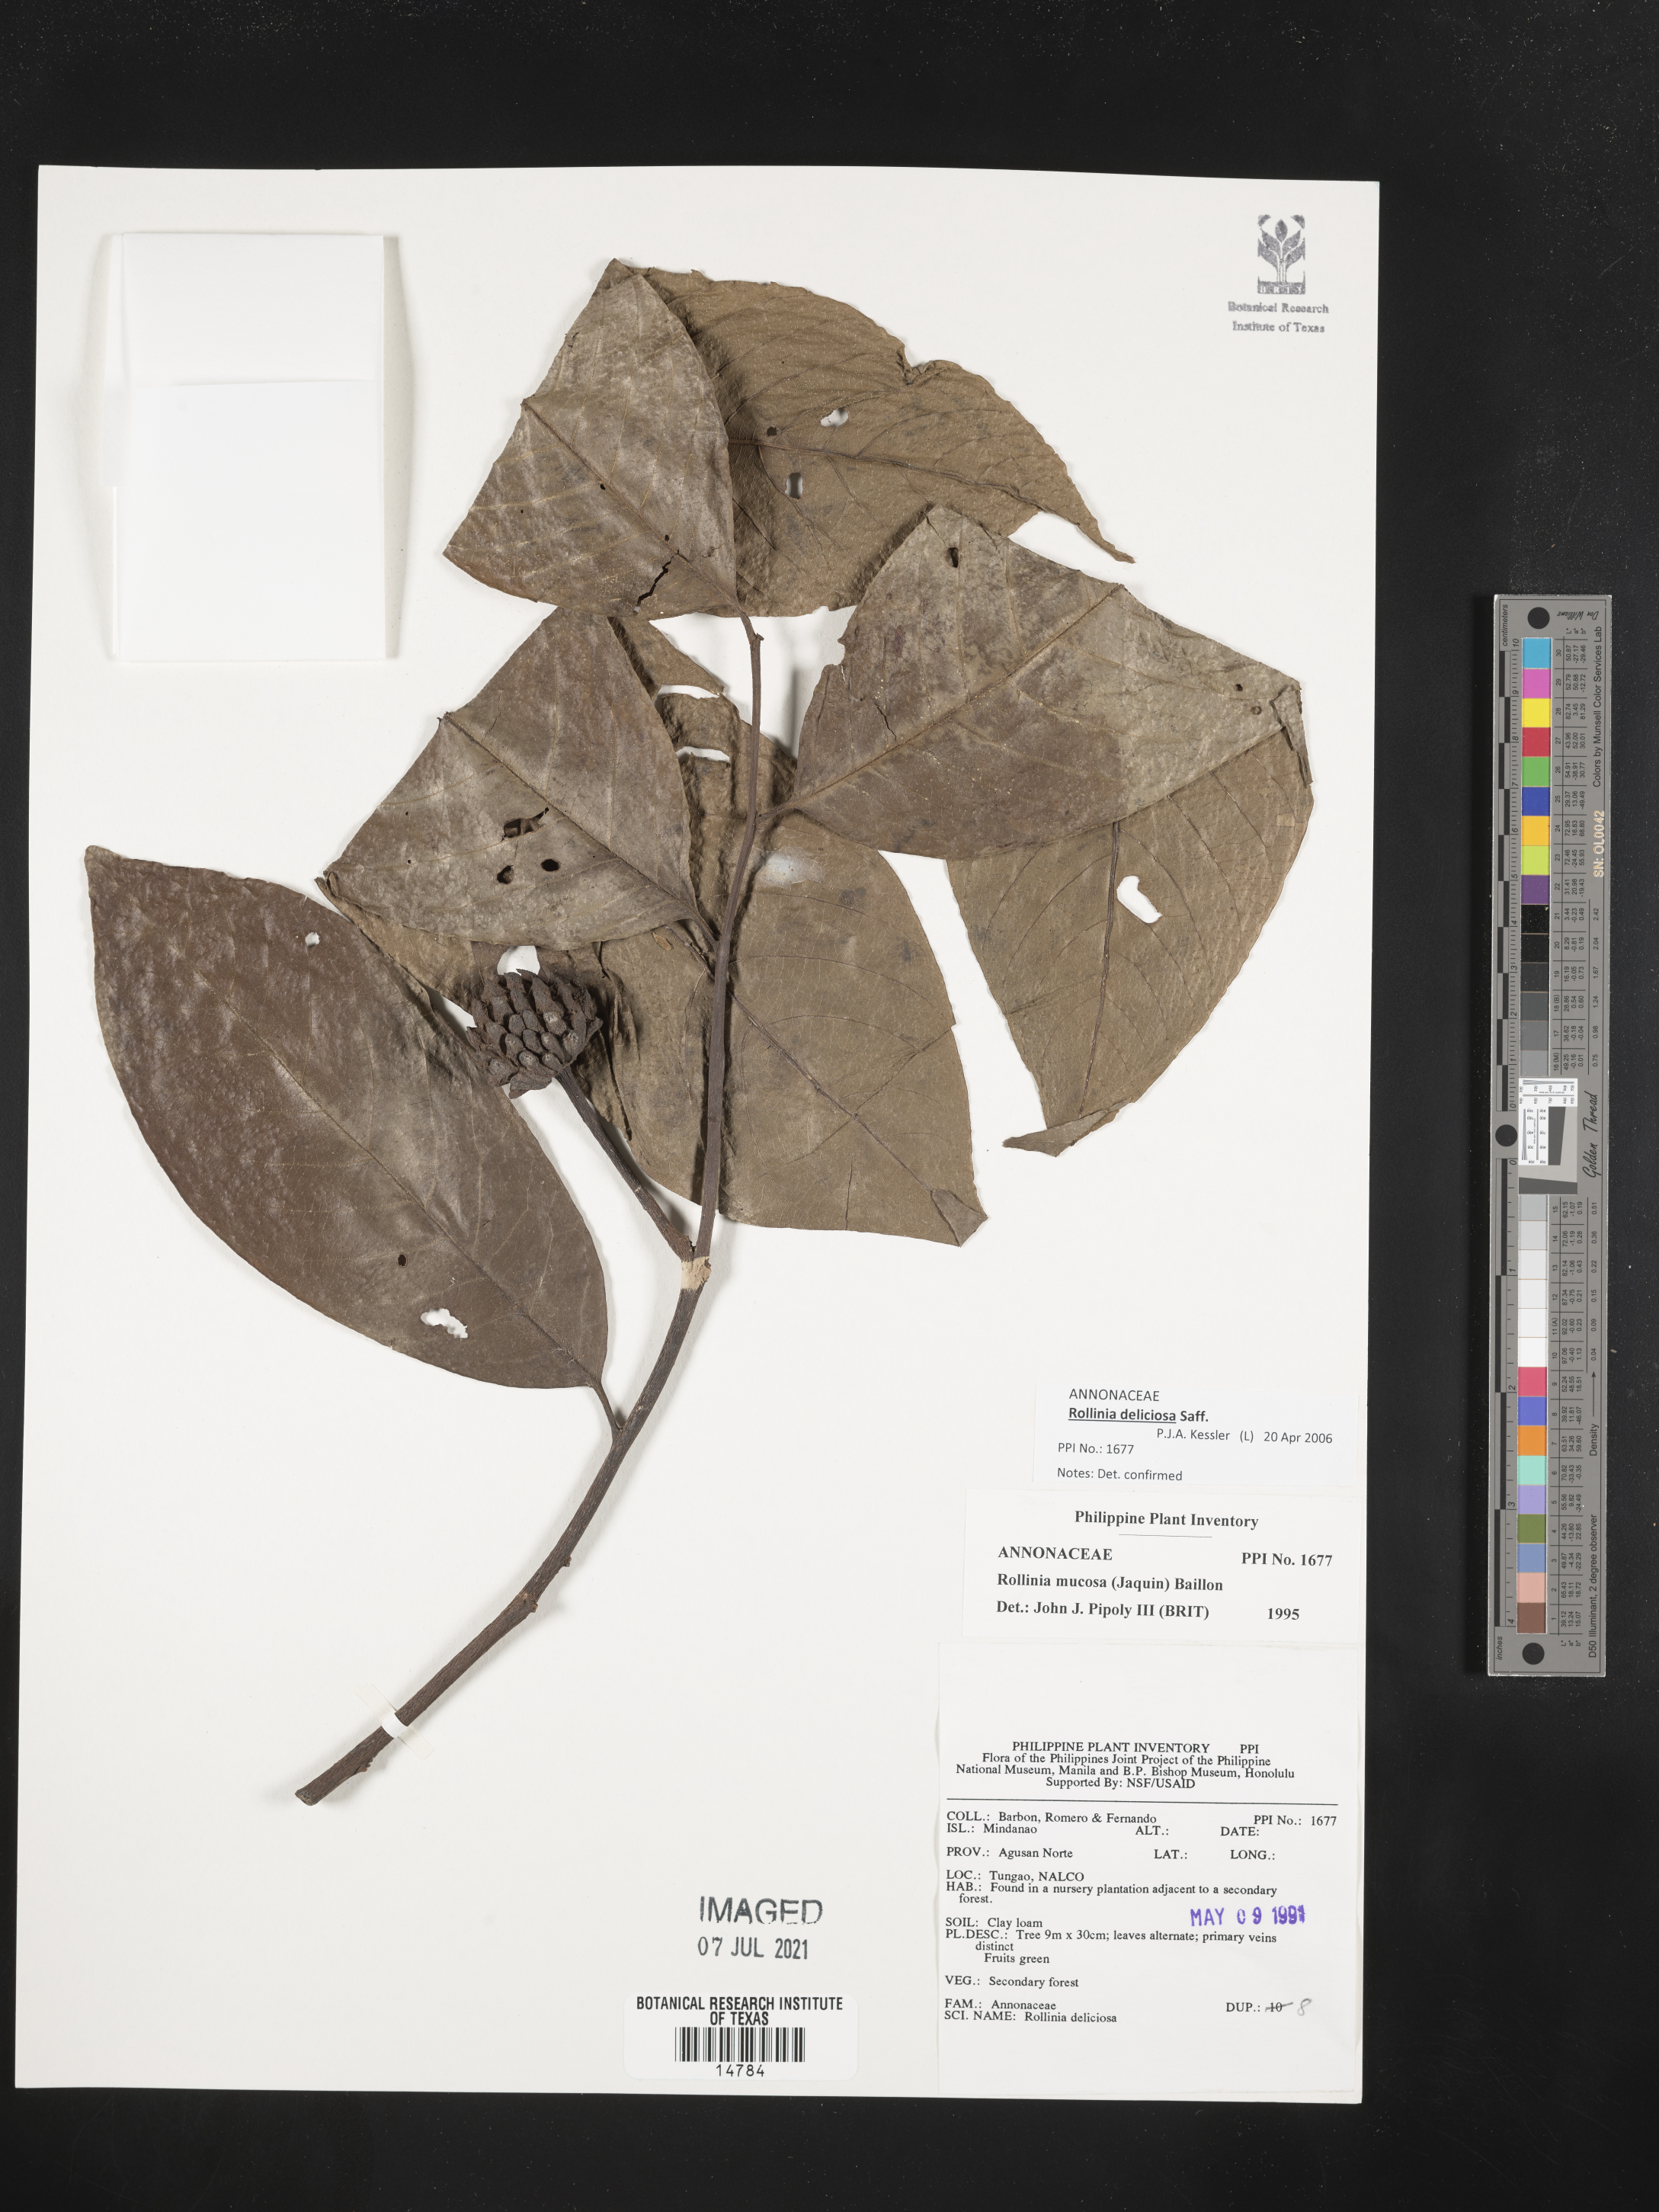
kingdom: Plantae
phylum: Tracheophyta
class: Magnoliopsida
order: Magnoliales
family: Annonaceae
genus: Annona
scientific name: Annona mucosa
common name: Sugar apple
